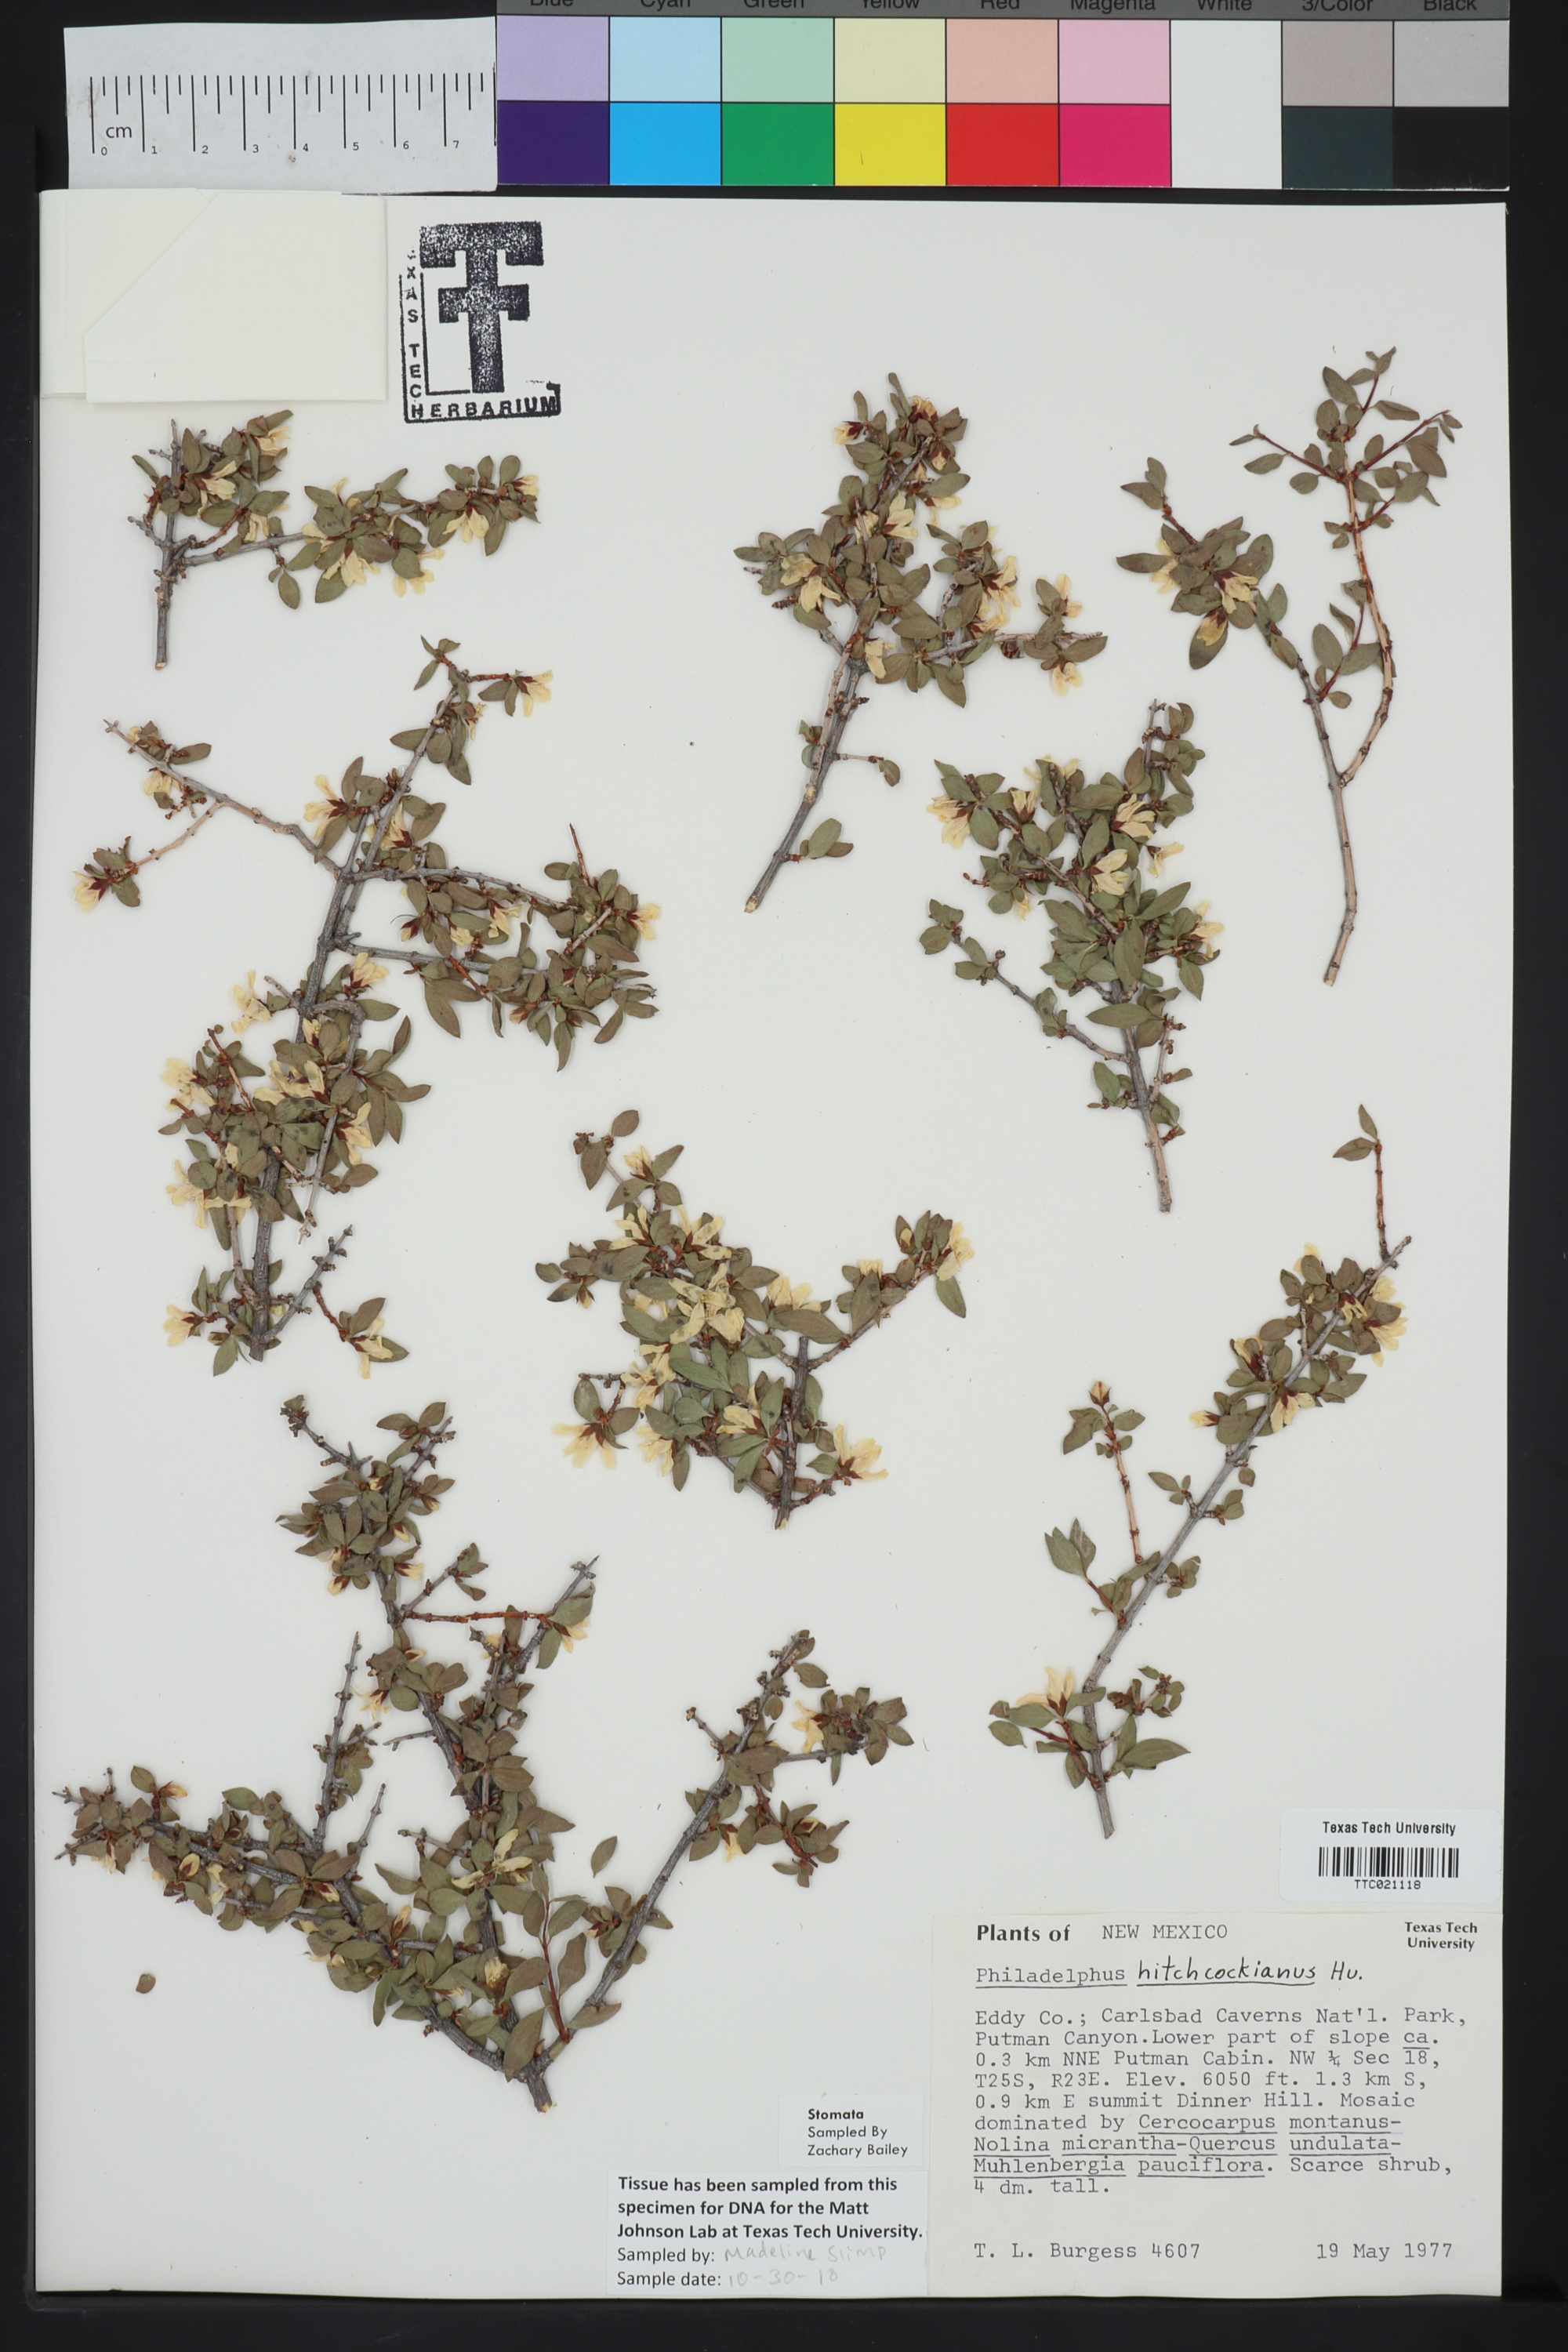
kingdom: Plantae
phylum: Tracheophyta
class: Magnoliopsida
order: Cornales
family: Hydrangeaceae
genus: Philadelphus
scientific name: Philadelphus mearnsii
